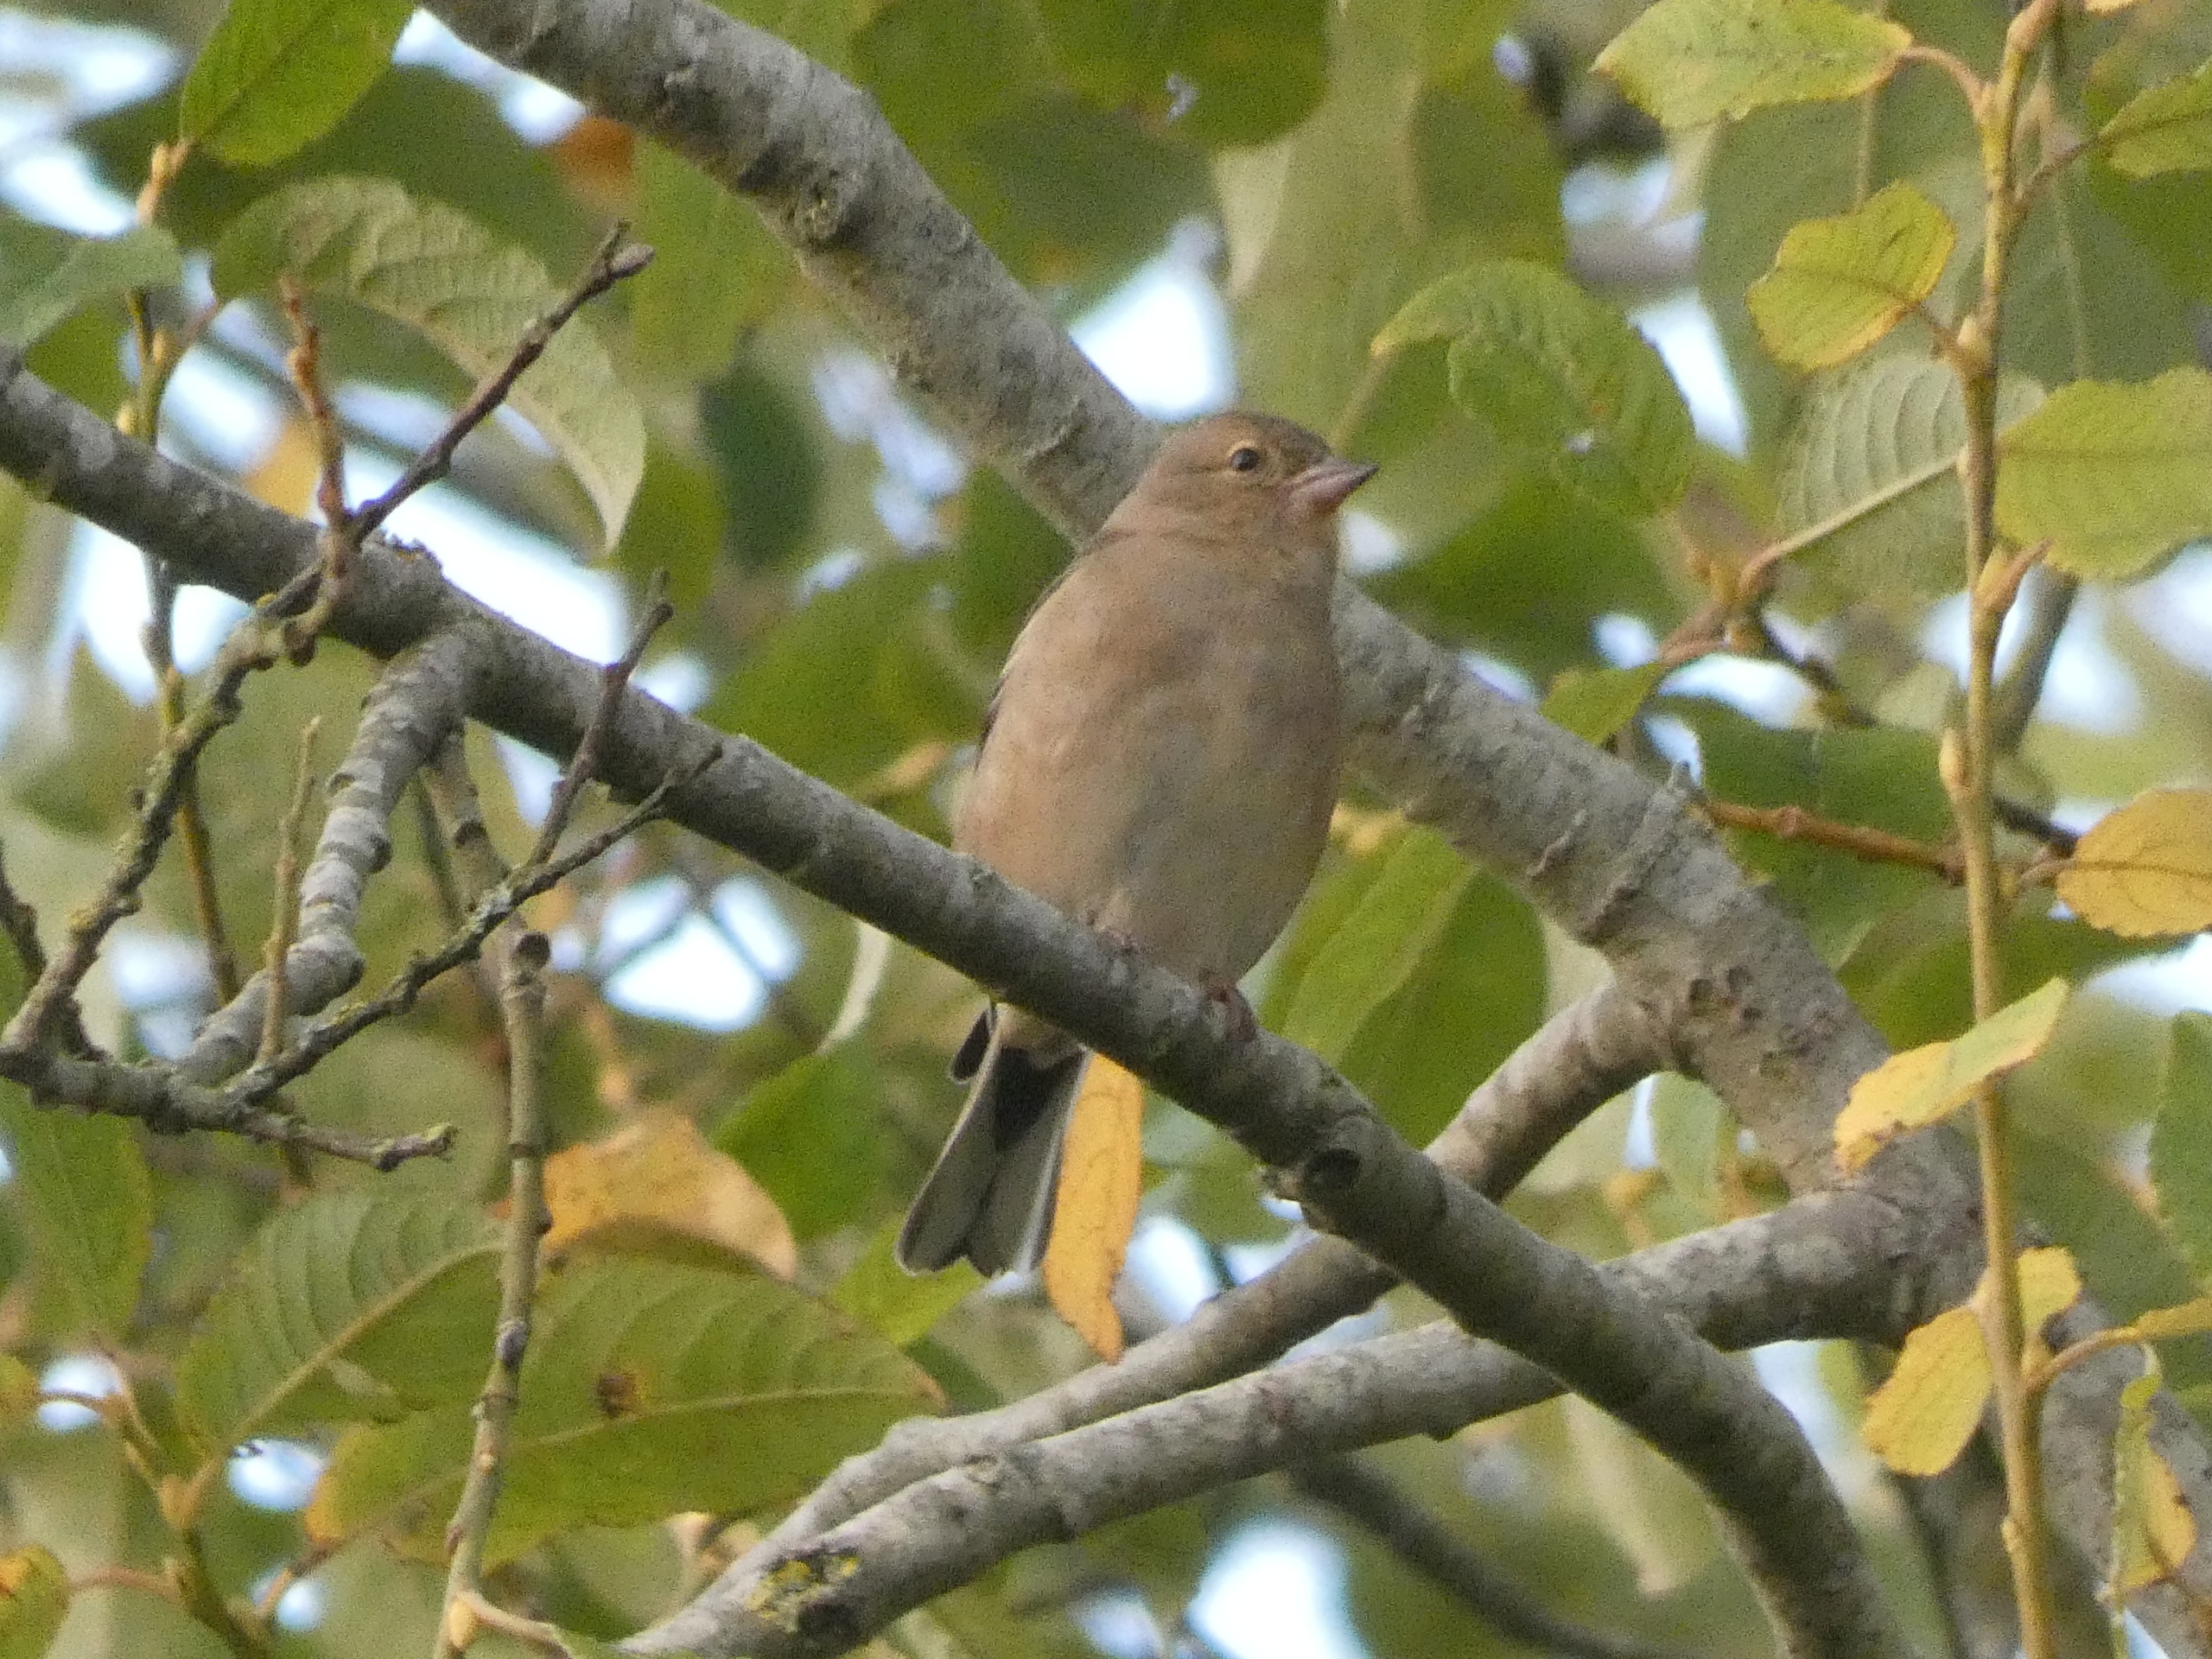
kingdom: Animalia
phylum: Chordata
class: Aves
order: Passeriformes
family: Fringillidae
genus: Fringilla
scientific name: Fringilla coelebs
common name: Bogfinke
